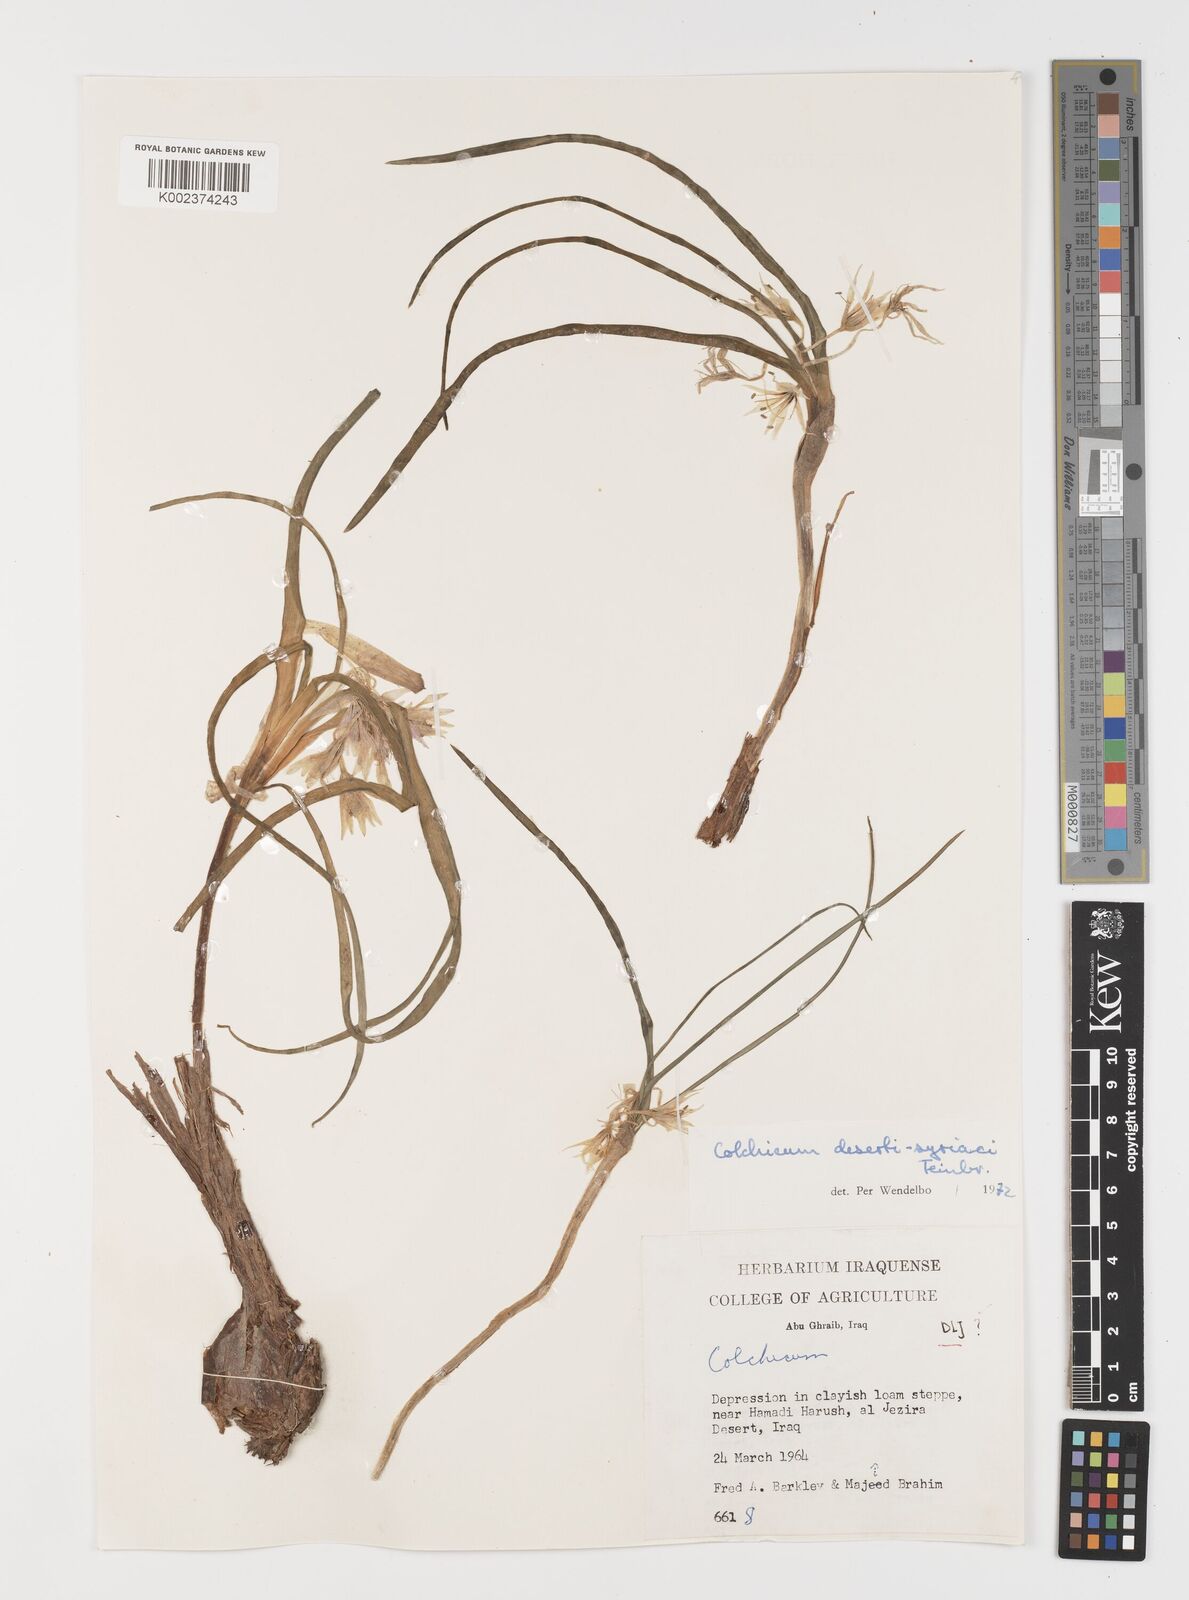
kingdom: Plantae
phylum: Tracheophyta
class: Liliopsida
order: Liliales
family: Colchicaceae
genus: Colchicum
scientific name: Colchicum schimperi
